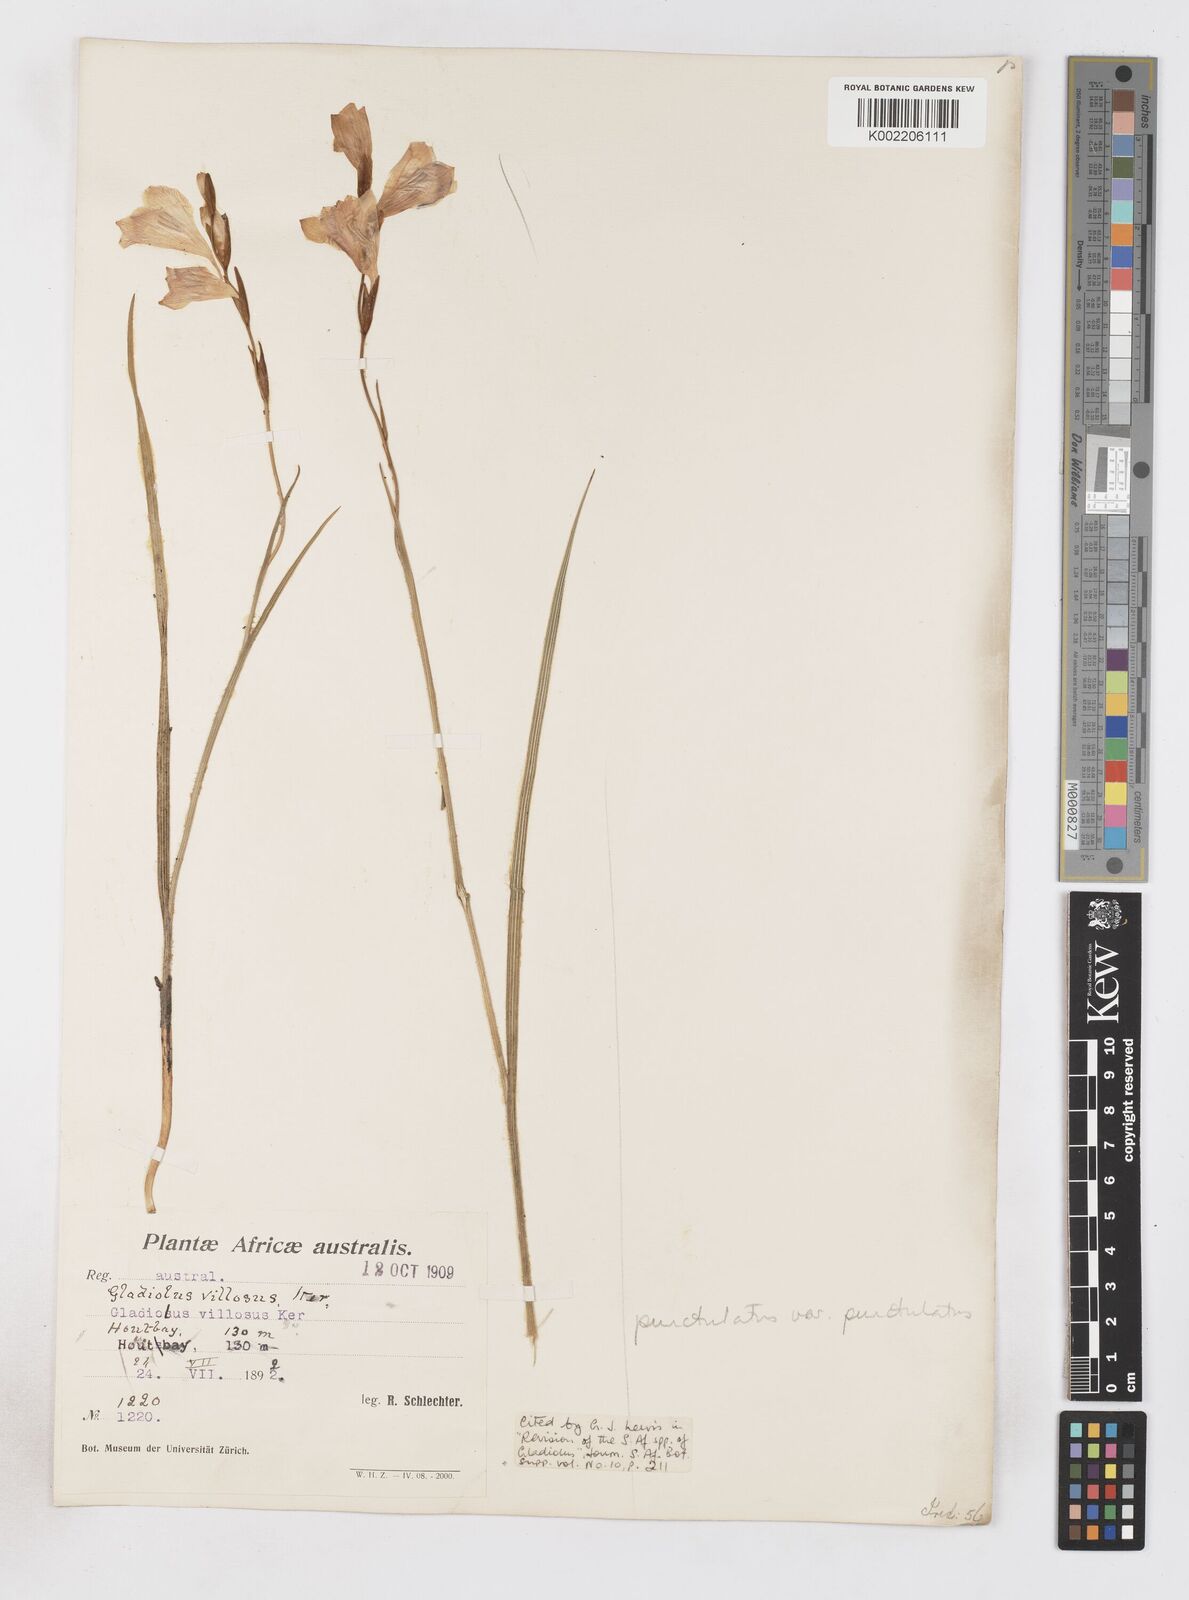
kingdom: Plantae
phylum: Tracheophyta
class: Liliopsida
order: Asparagales
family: Iridaceae
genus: Gladiolus
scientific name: Gladiolus hirsutus
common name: Small pink afrikaner
